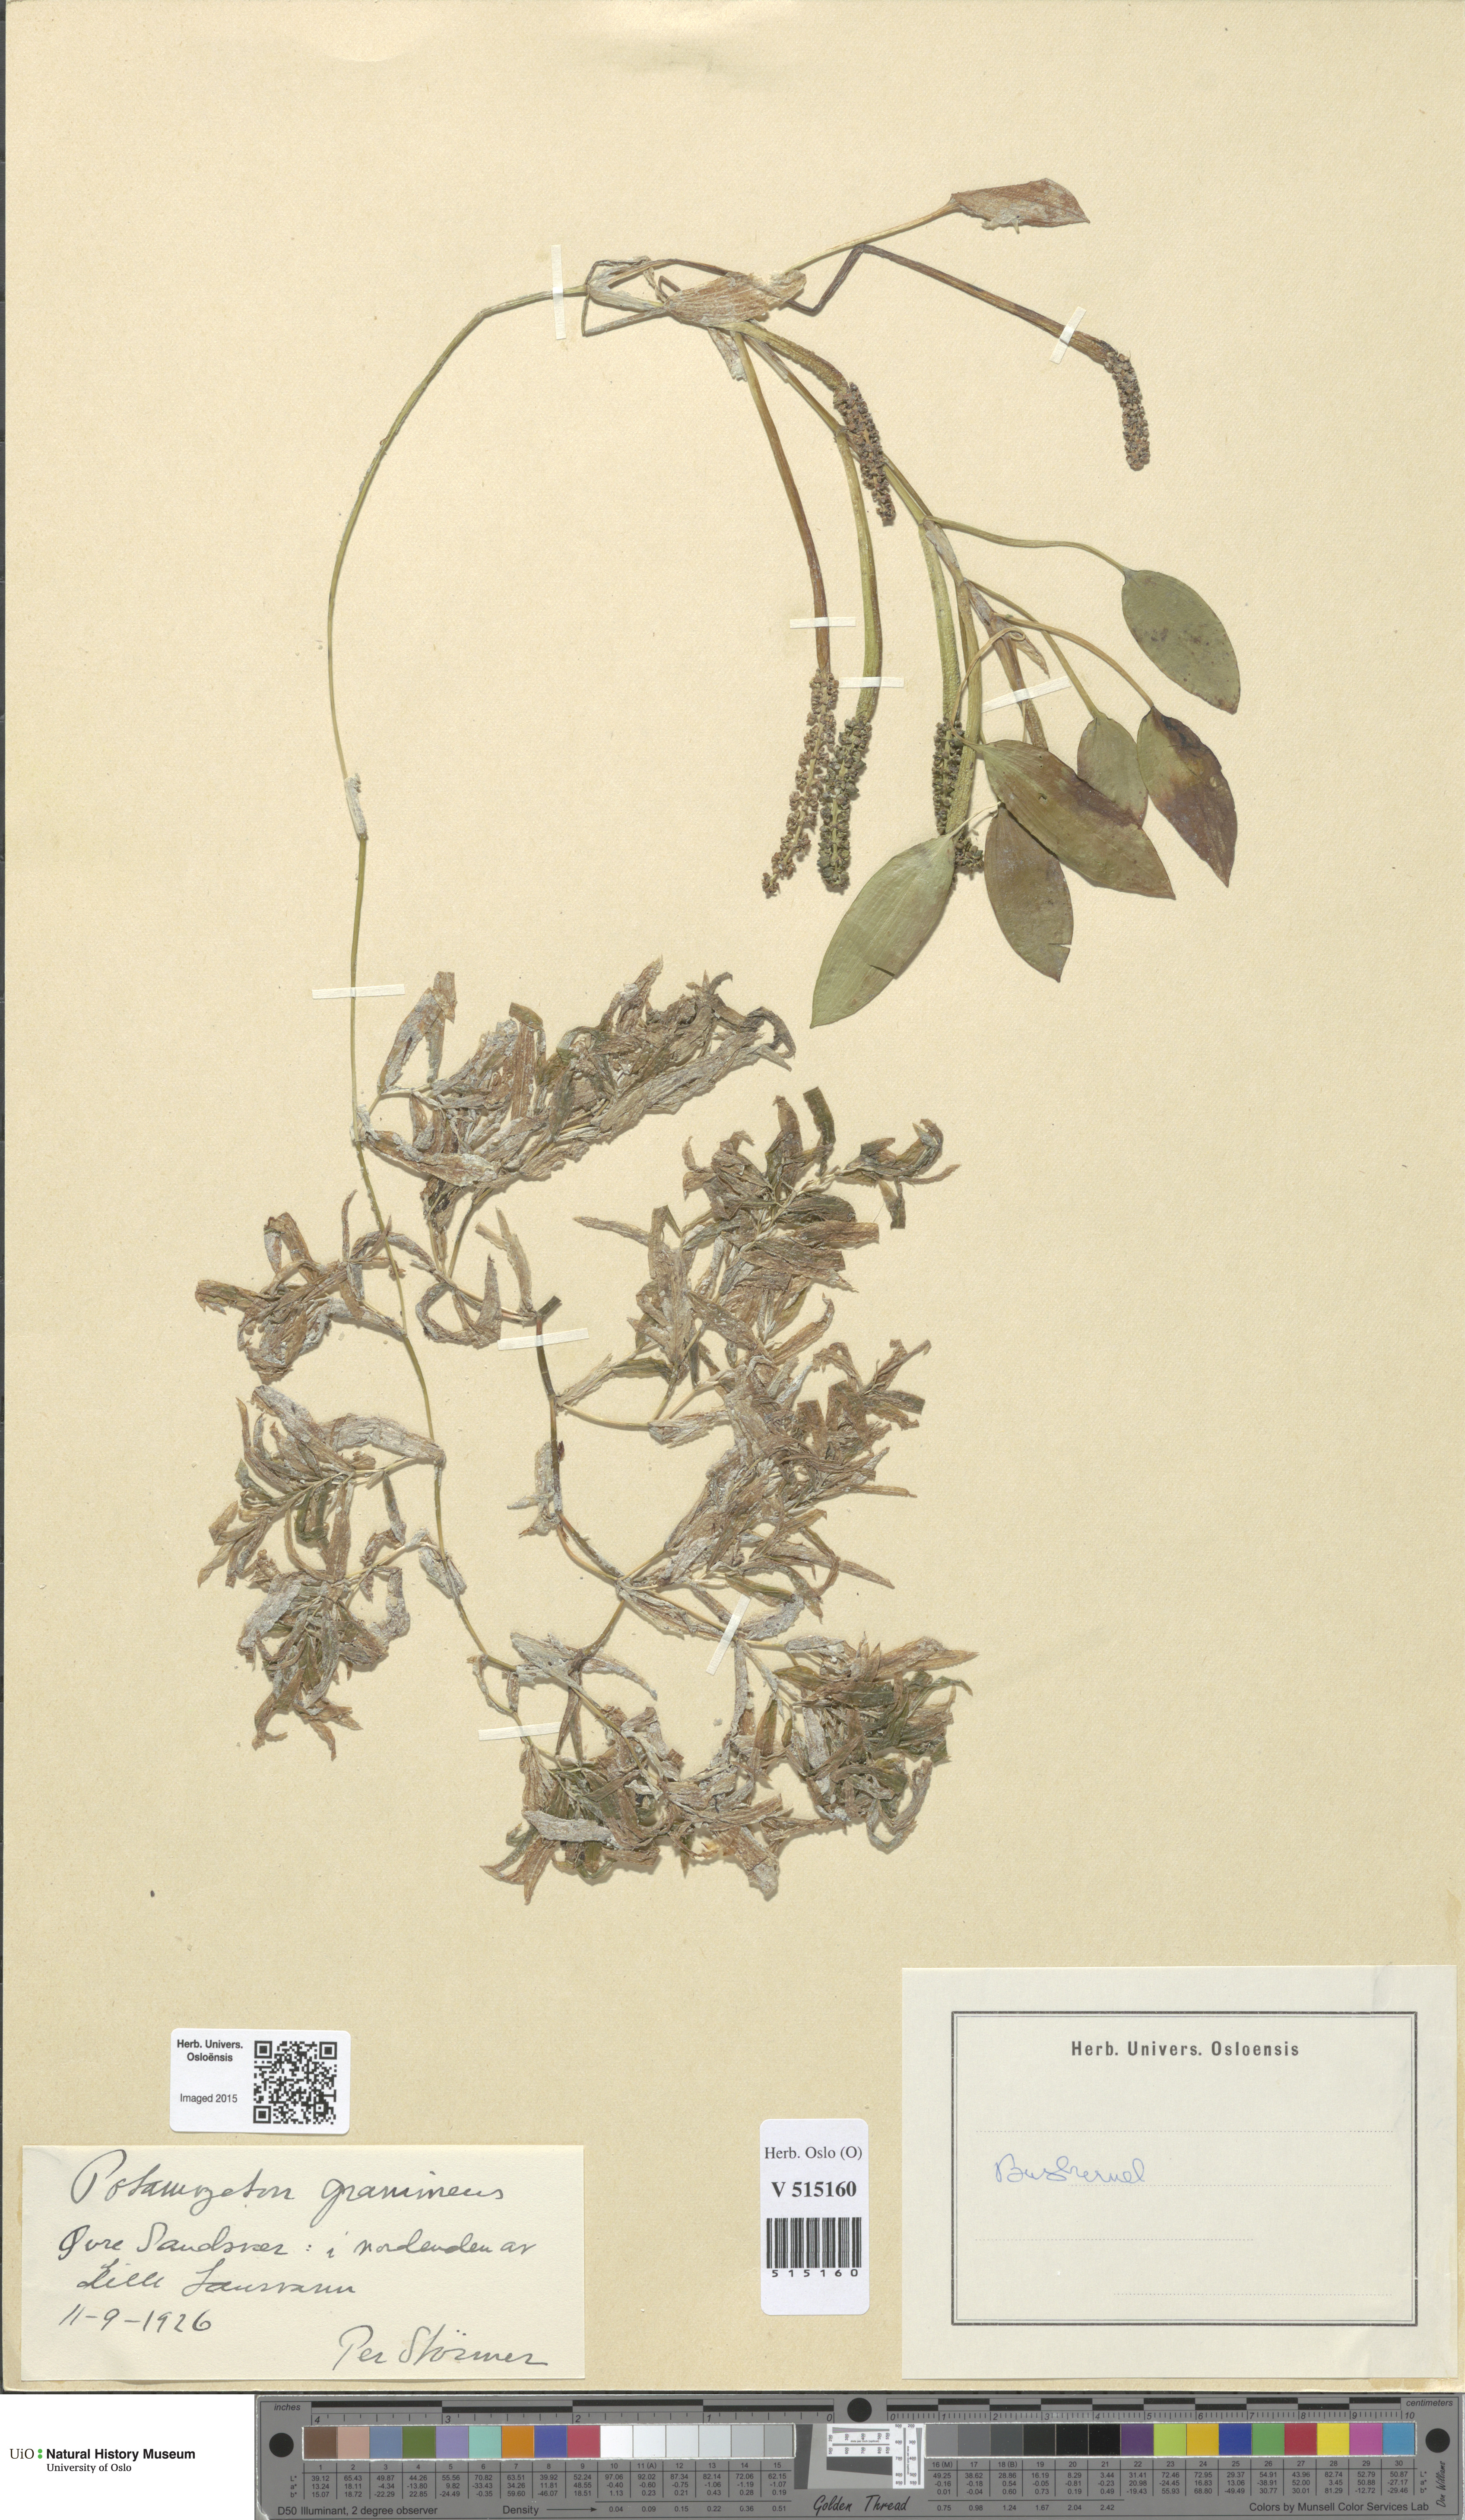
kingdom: Plantae
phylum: Tracheophyta
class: Liliopsida
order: Alismatales
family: Potamogetonaceae
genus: Potamogeton
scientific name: Potamogeton gramineus
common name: Various-leaved pondweed
